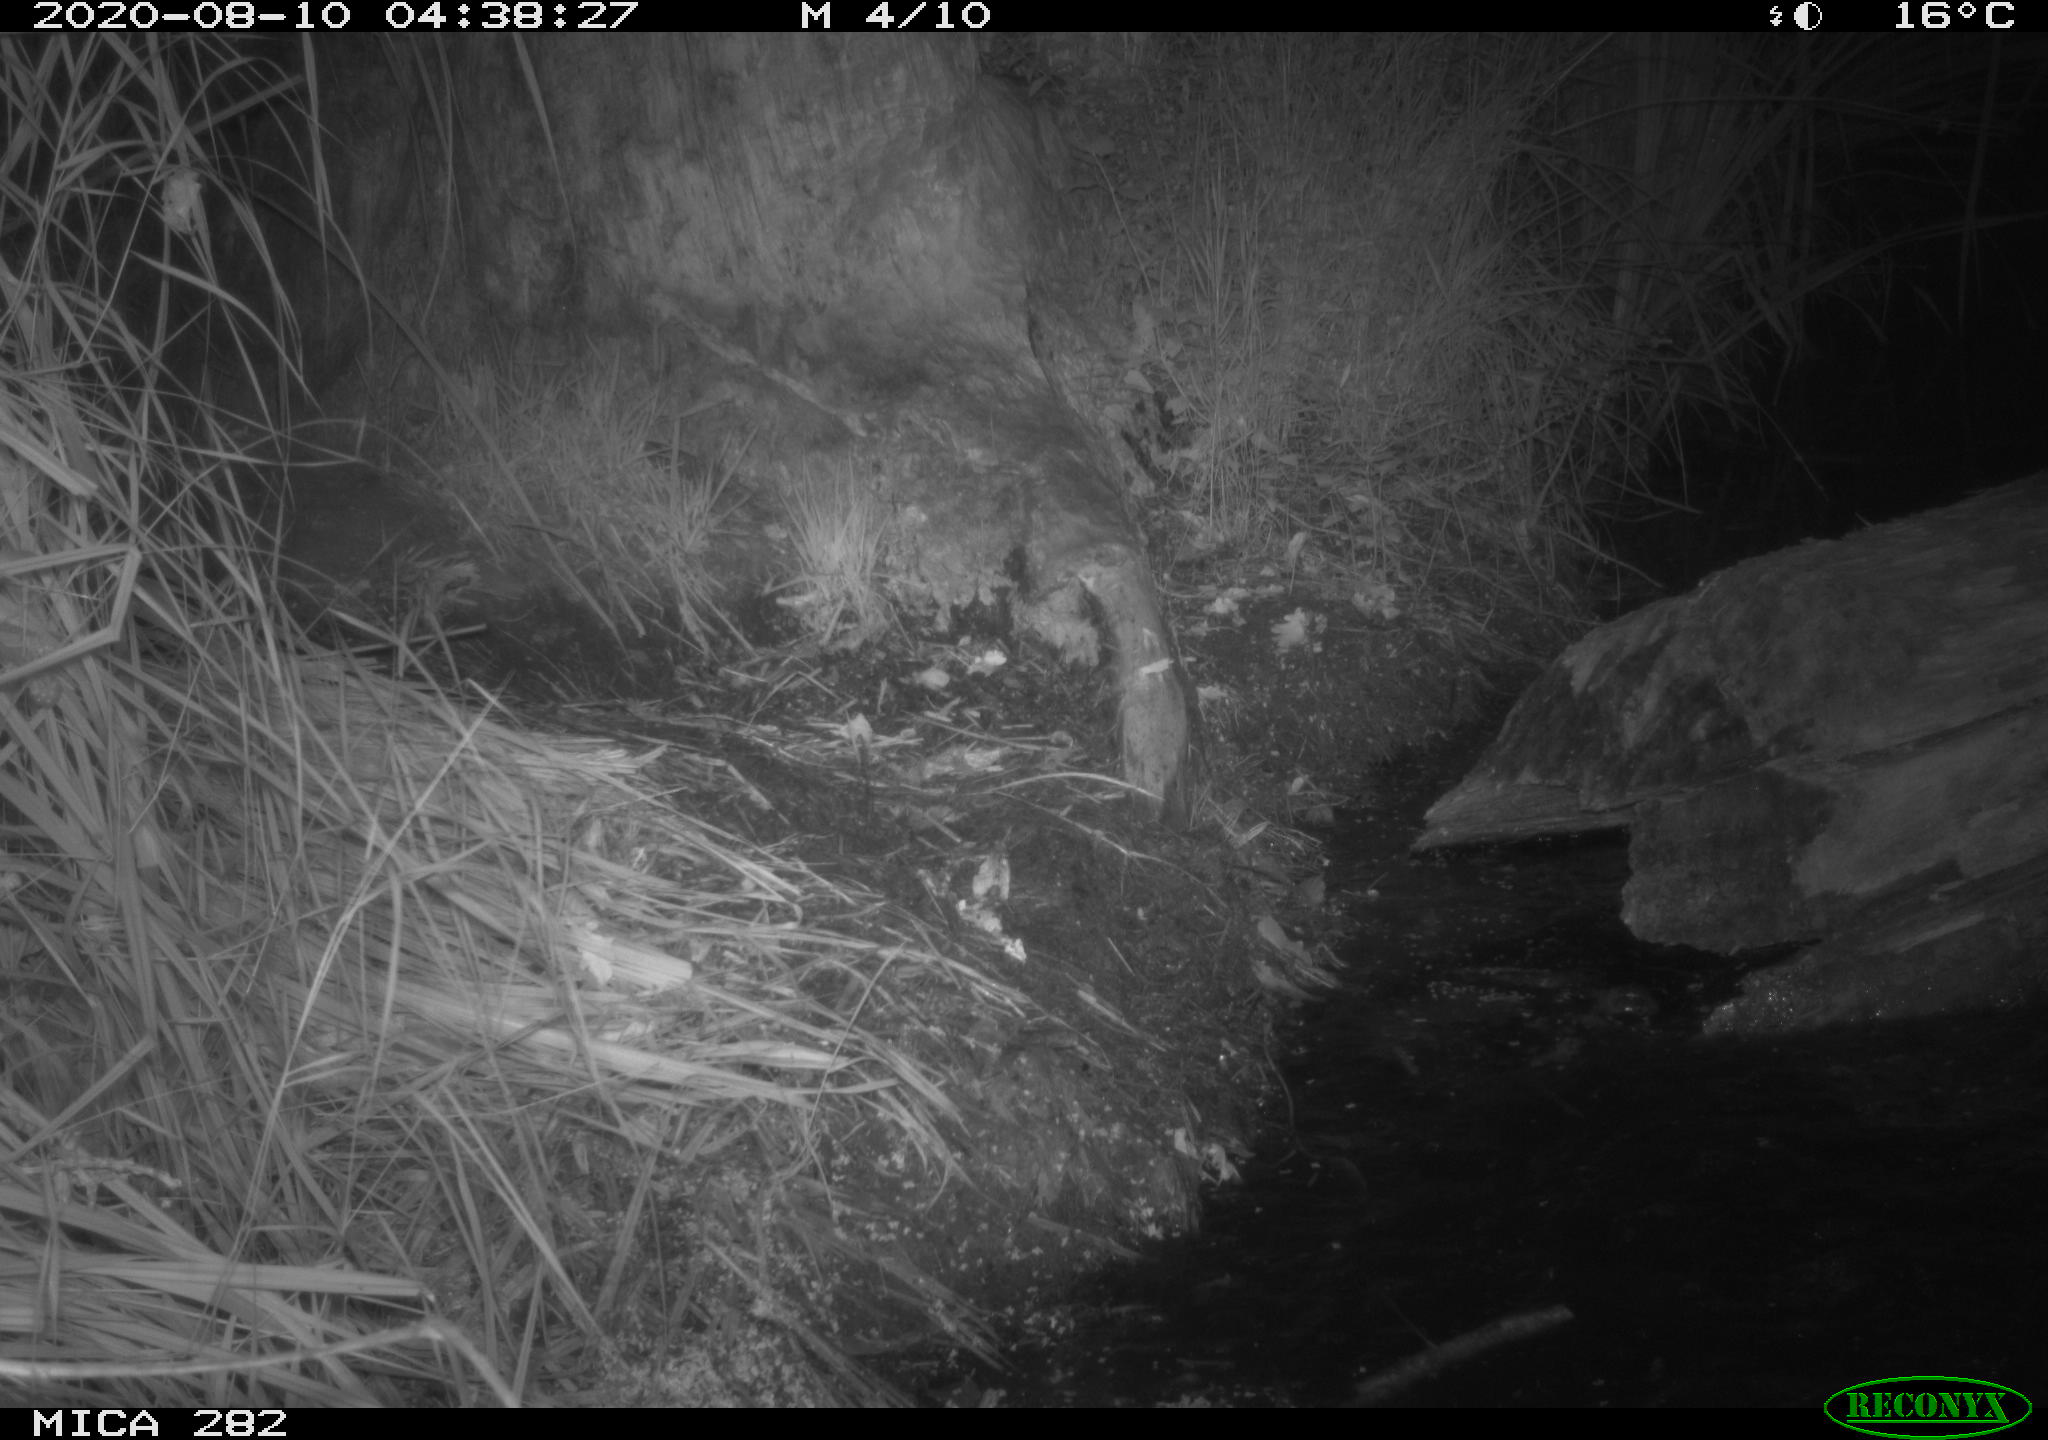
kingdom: Animalia
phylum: Chordata
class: Mammalia
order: Rodentia
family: Castoridae
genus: Castor
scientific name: Castor fiber
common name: Eurasian beaver
